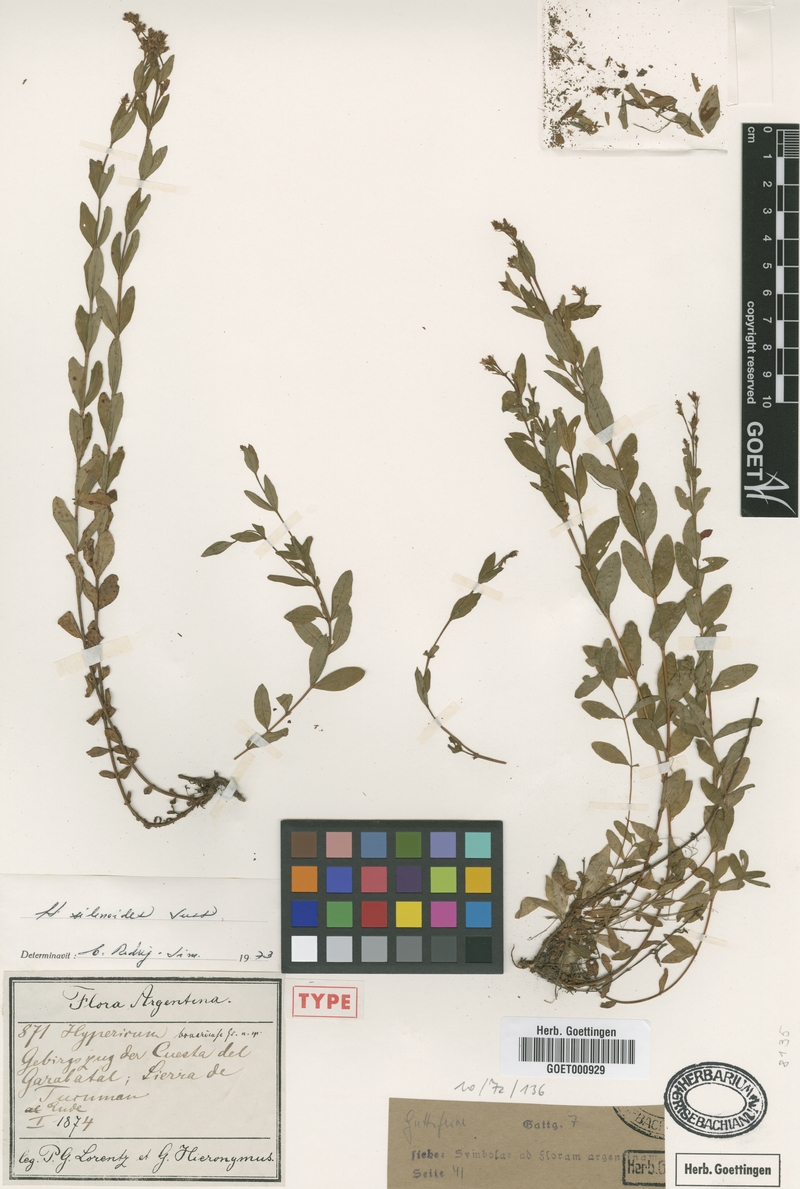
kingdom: Plantae
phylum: Tracheophyta
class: Magnoliopsida
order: Malpighiales
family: Hypericaceae
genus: Hypericum
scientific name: Hypericum silenoides
